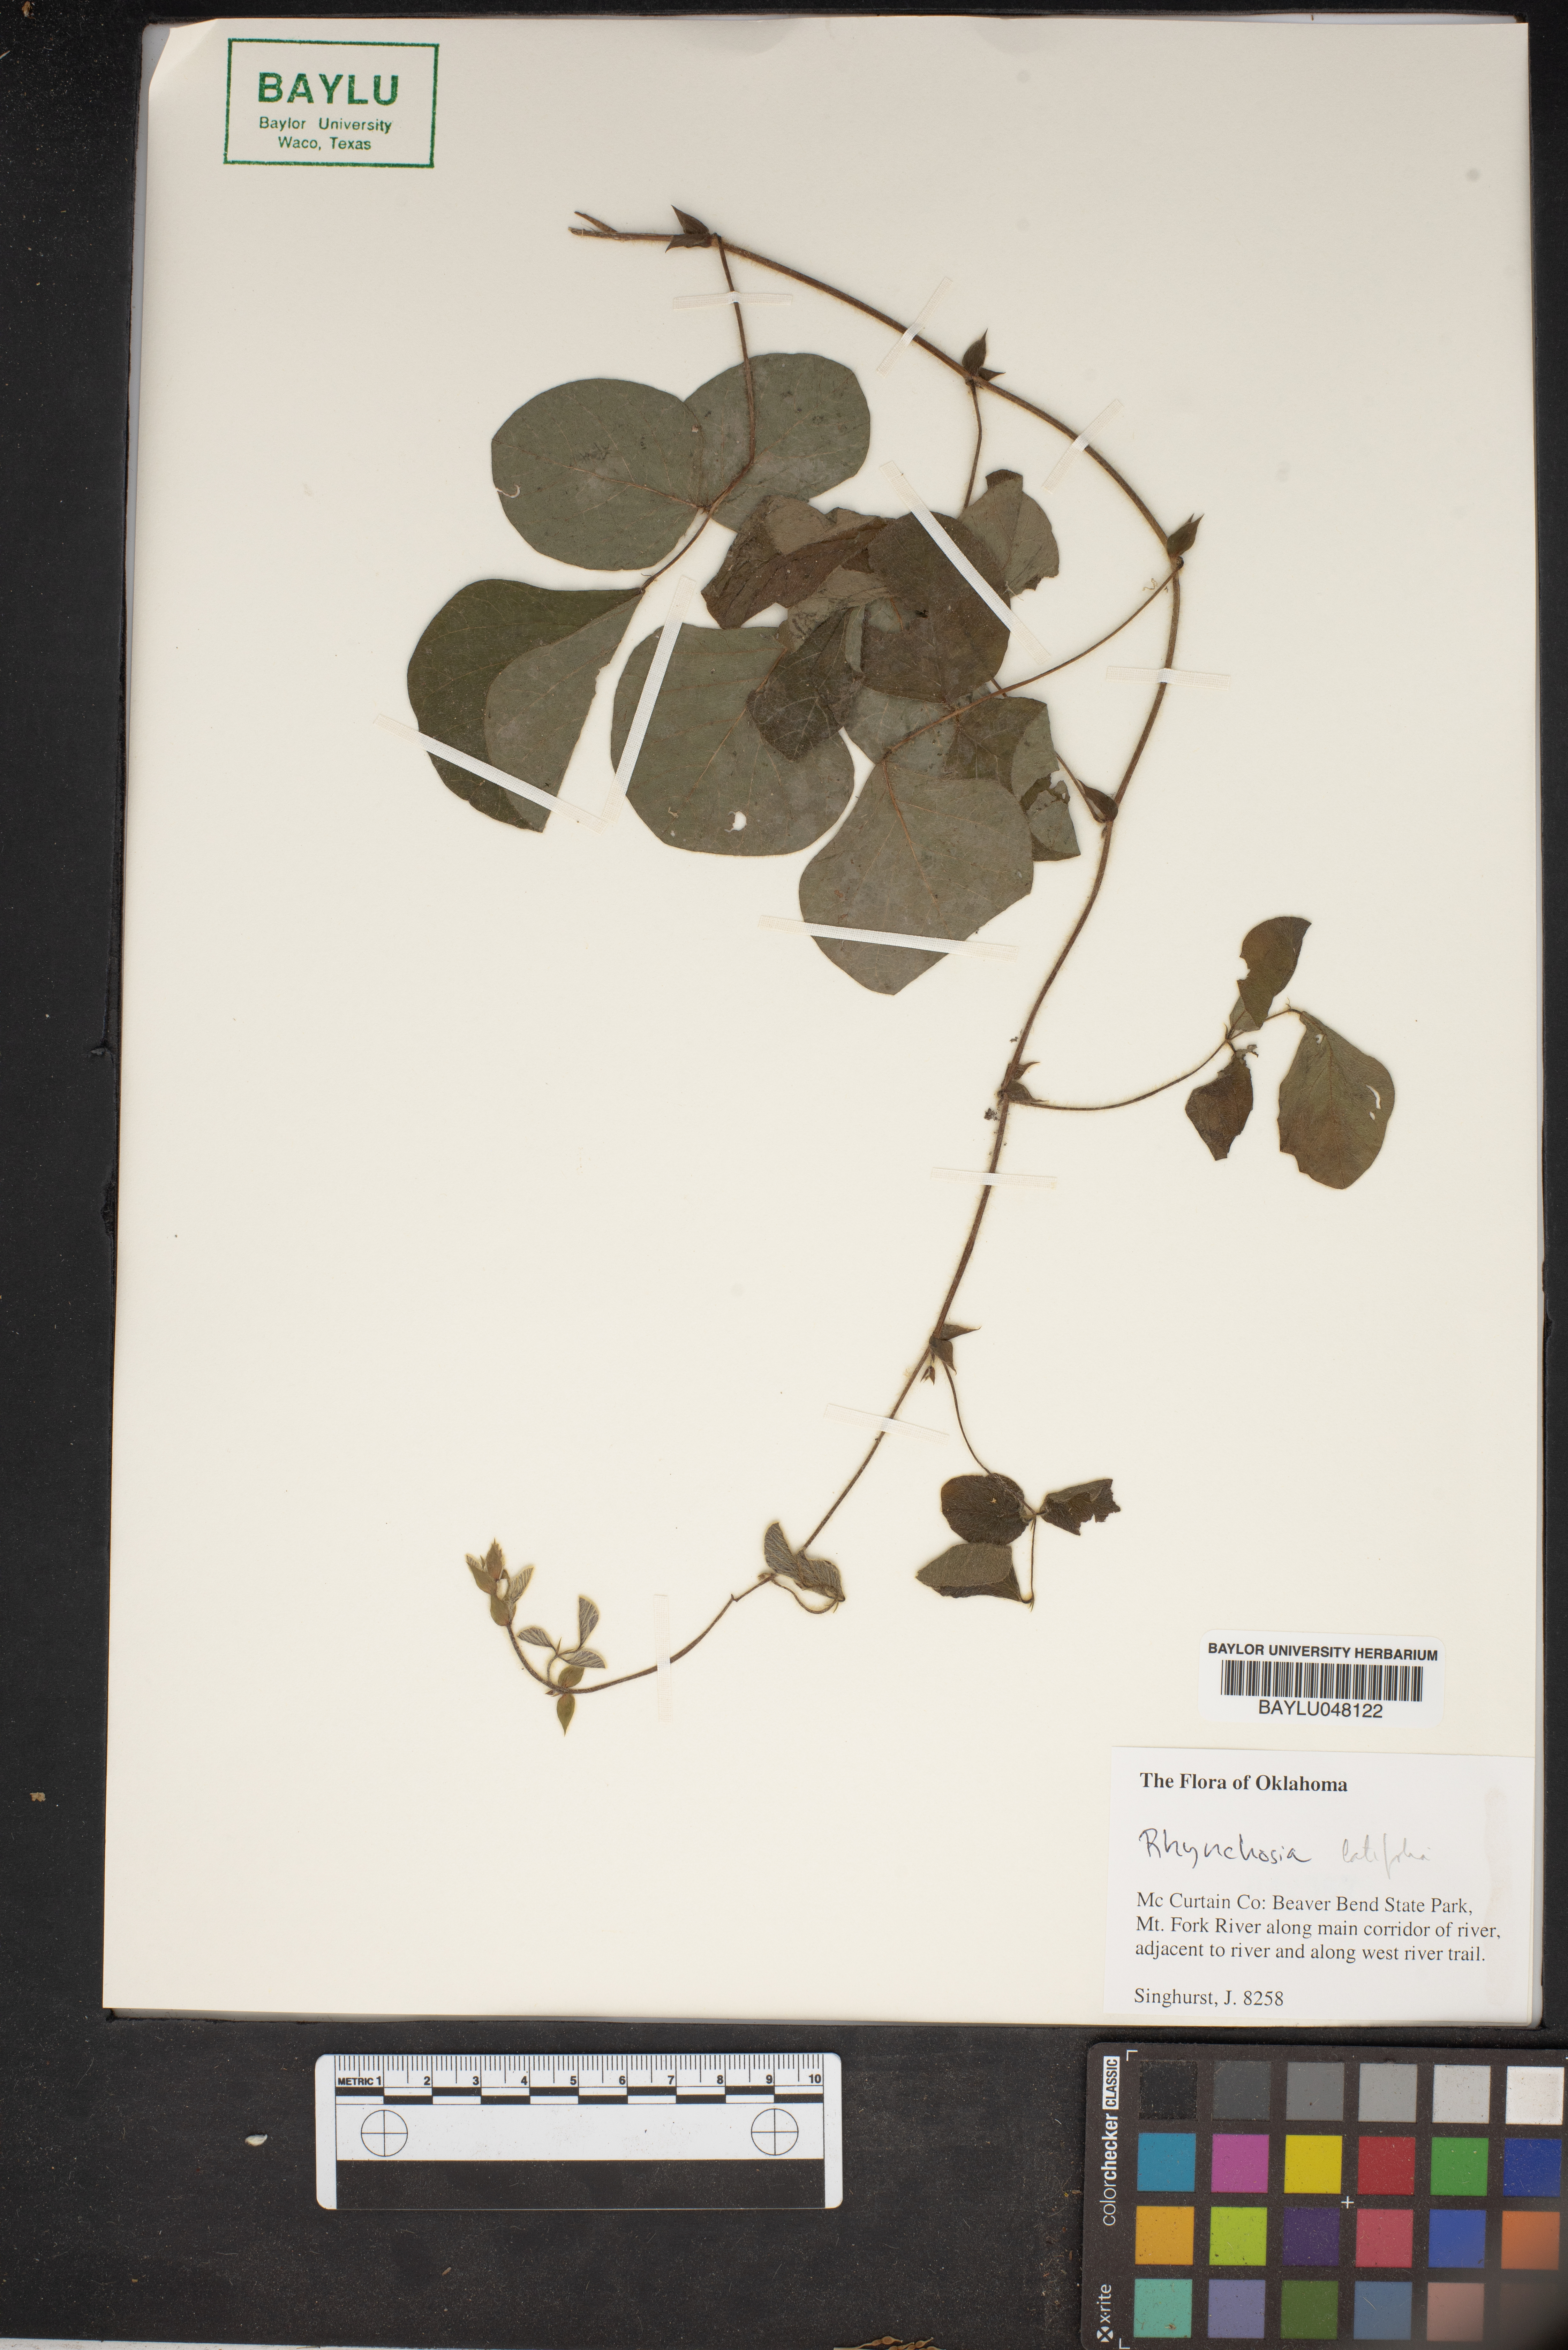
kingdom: Plantae
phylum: Tracheophyta
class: Magnoliopsida
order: Fabales
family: Fabaceae
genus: Rhynchosia
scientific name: Rhynchosia latifolia
